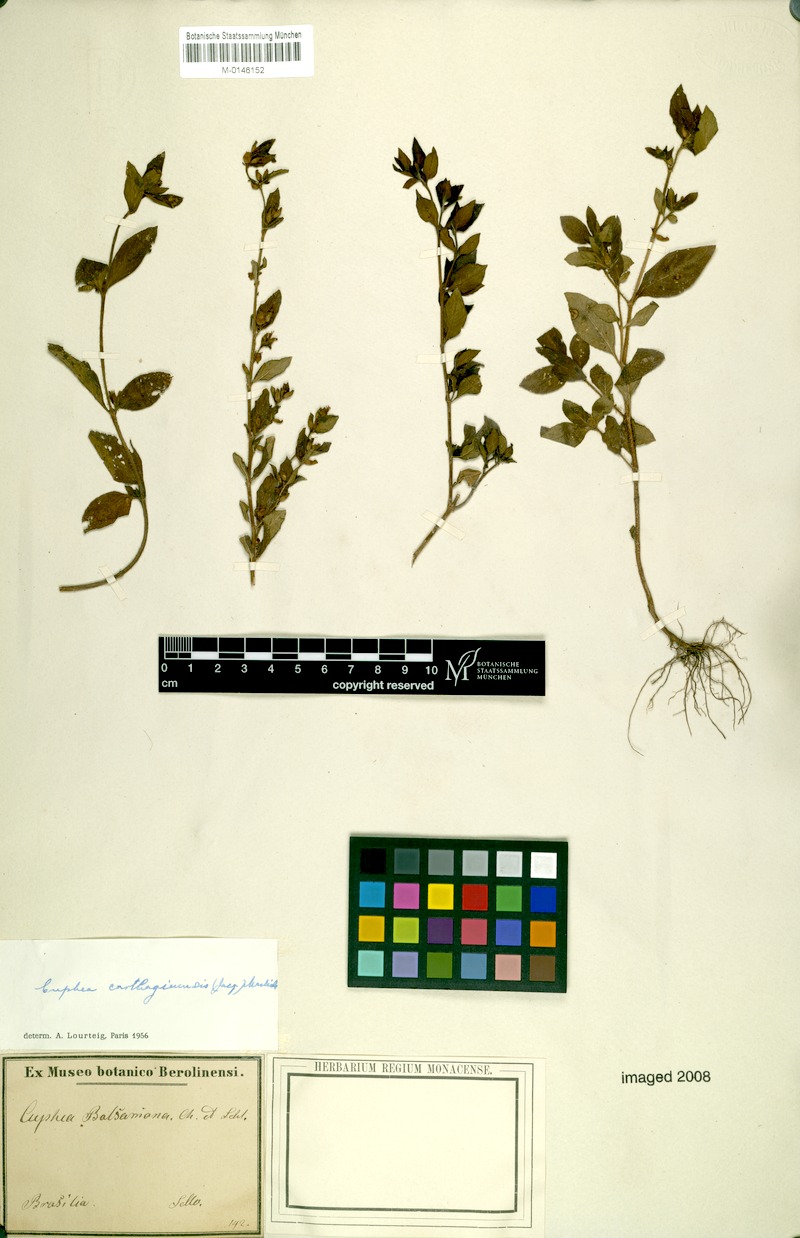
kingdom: Plantae
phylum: Tracheophyta
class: Magnoliopsida
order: Myrtales
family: Lythraceae
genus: Cuphea
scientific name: Cuphea carthagenensis
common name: Colombian waxweed
